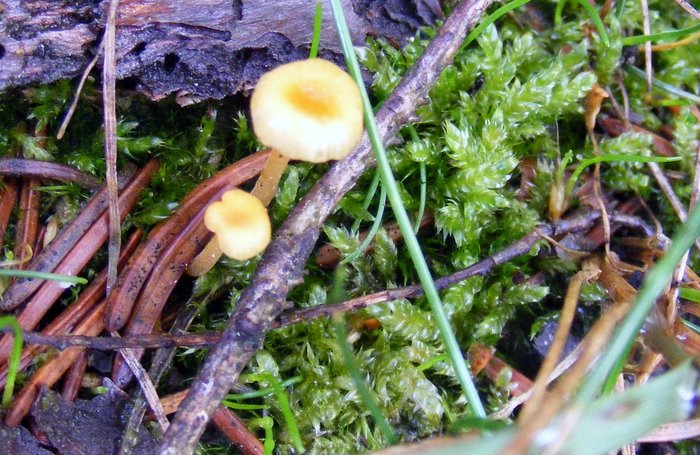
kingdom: Fungi
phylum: Basidiomycota
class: Agaricomycetes
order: Hymenochaetales
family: Rickenellaceae
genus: Rickenella
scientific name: Rickenella fibula
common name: orange mosnavlehat
